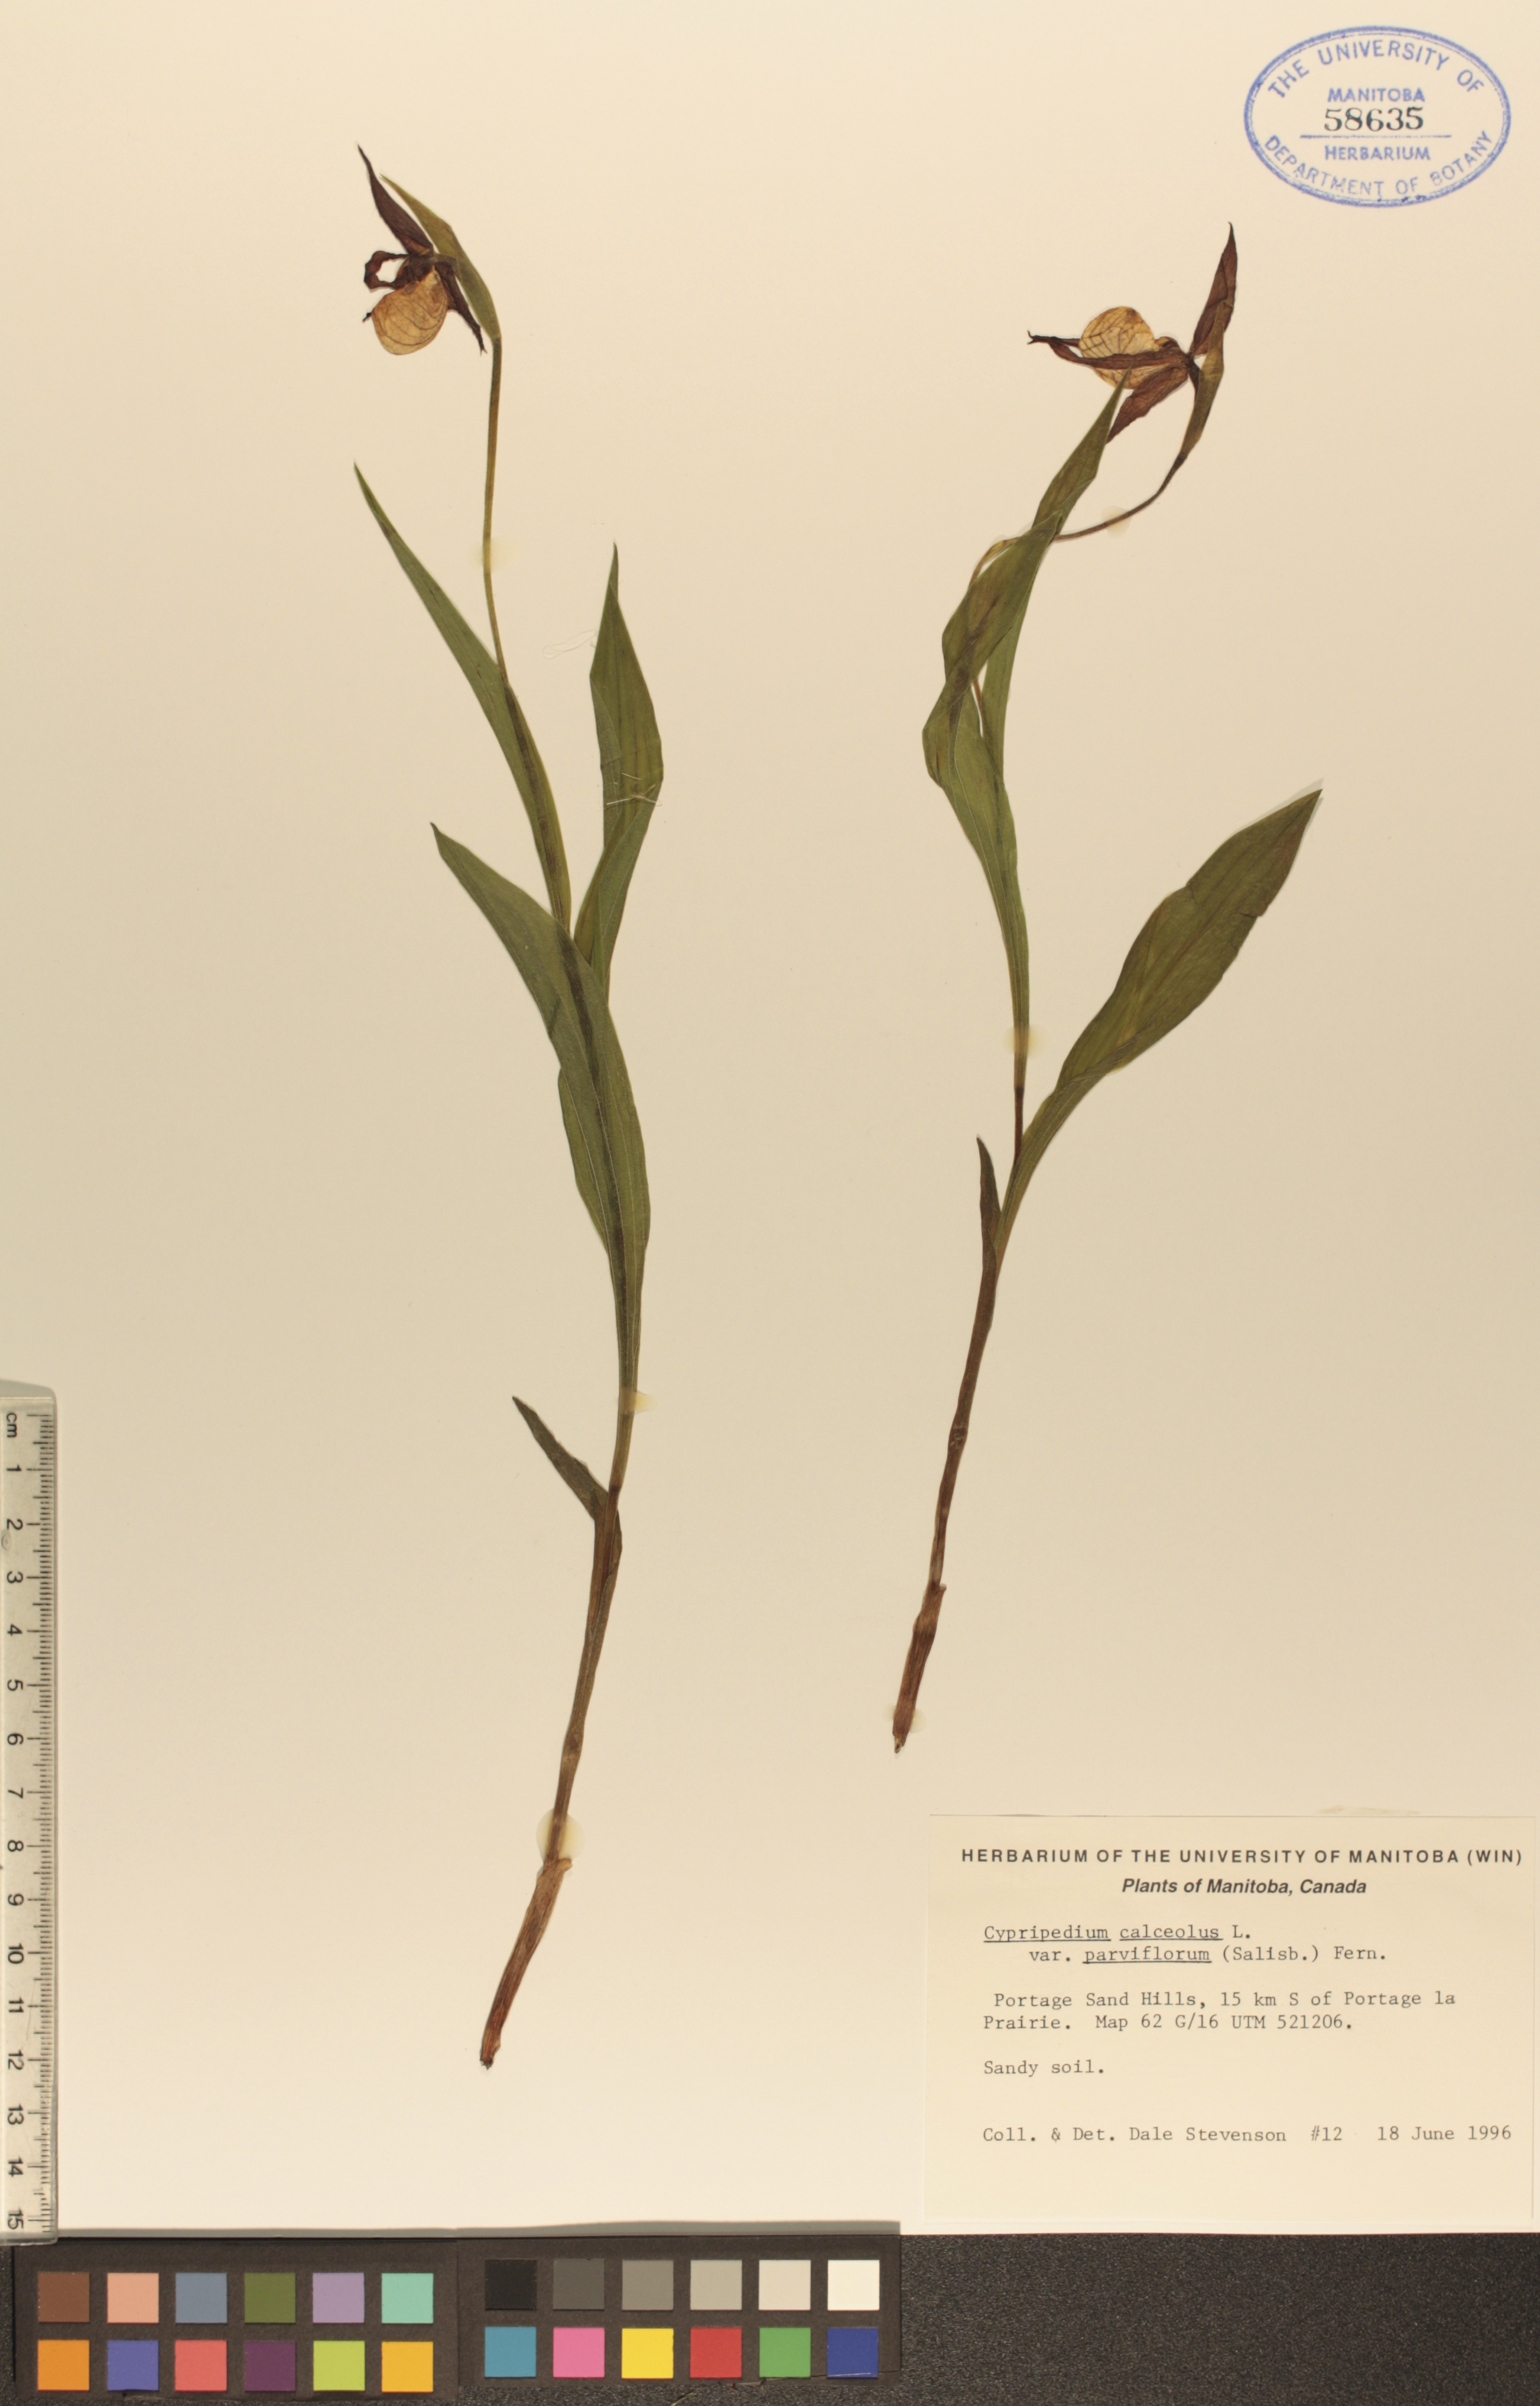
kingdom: Plantae
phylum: Tracheophyta
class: Liliopsida
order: Asparagales
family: Orchidaceae
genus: Cypripedium
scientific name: Cypripedium parviflorum
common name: American yellow lady's-slipper
